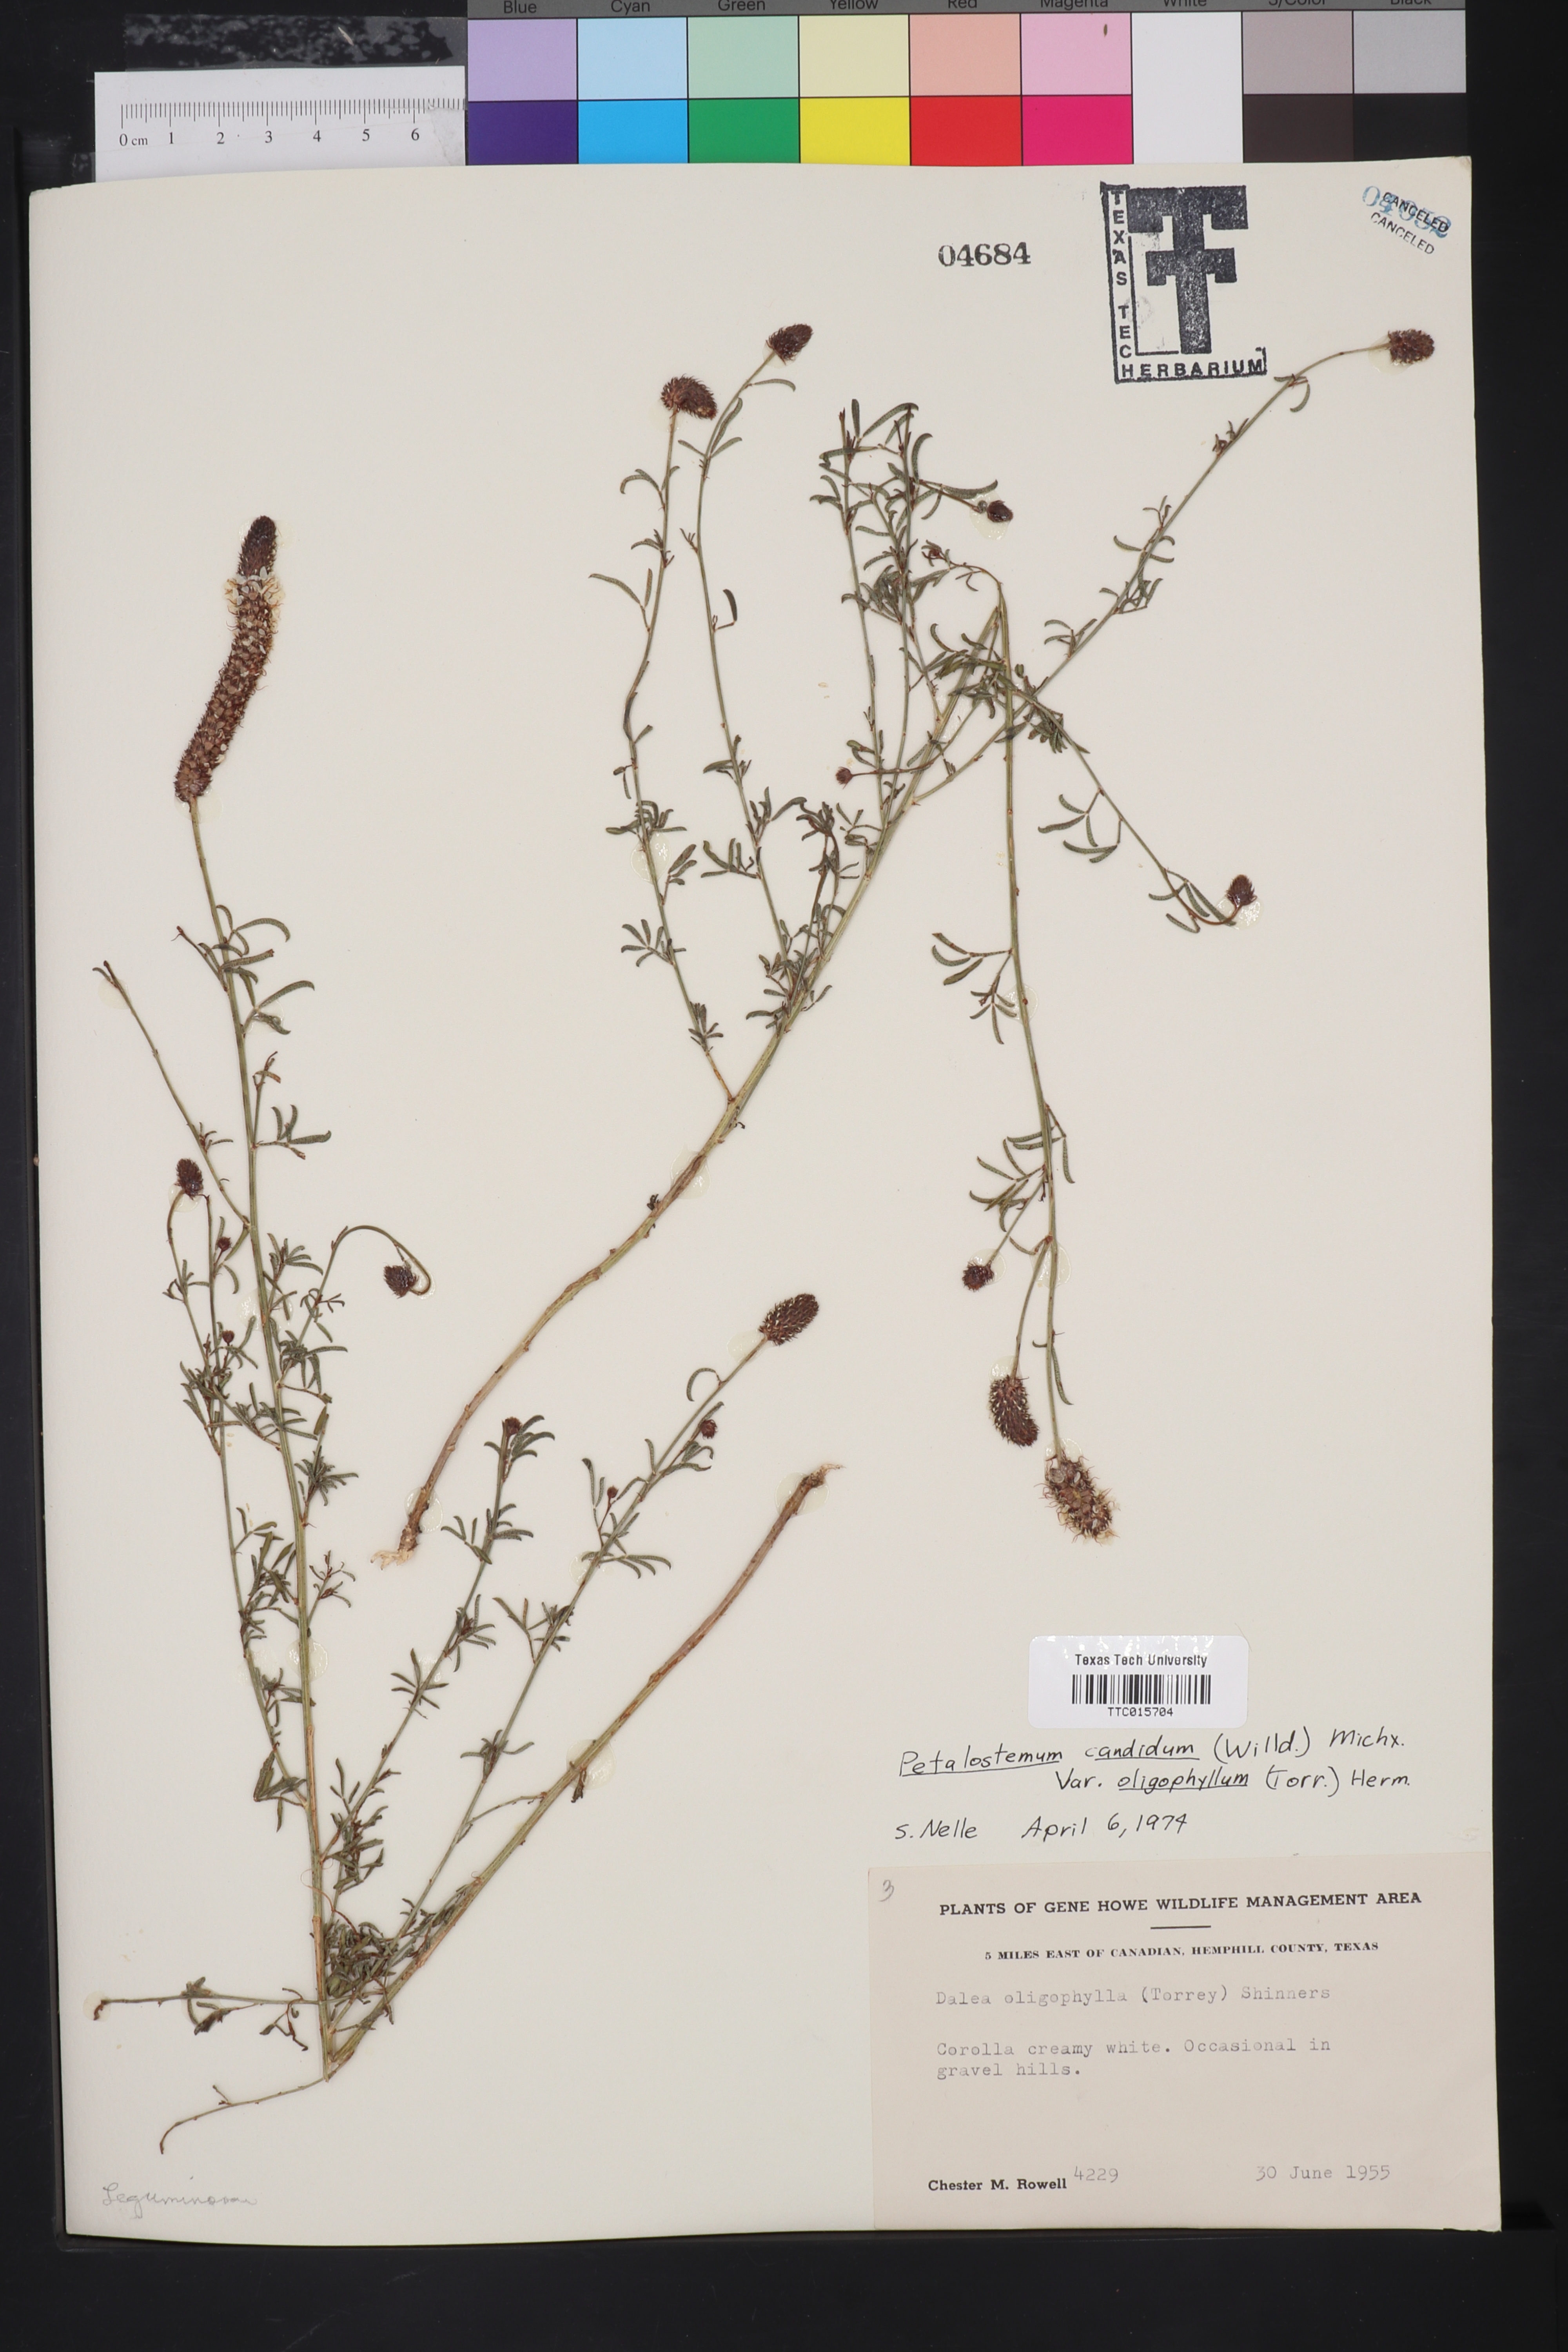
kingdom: Plantae
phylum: Tracheophyta
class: Magnoliopsida
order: Fabales
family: Fabaceae
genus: Petalostemum
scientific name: Petalostemum
